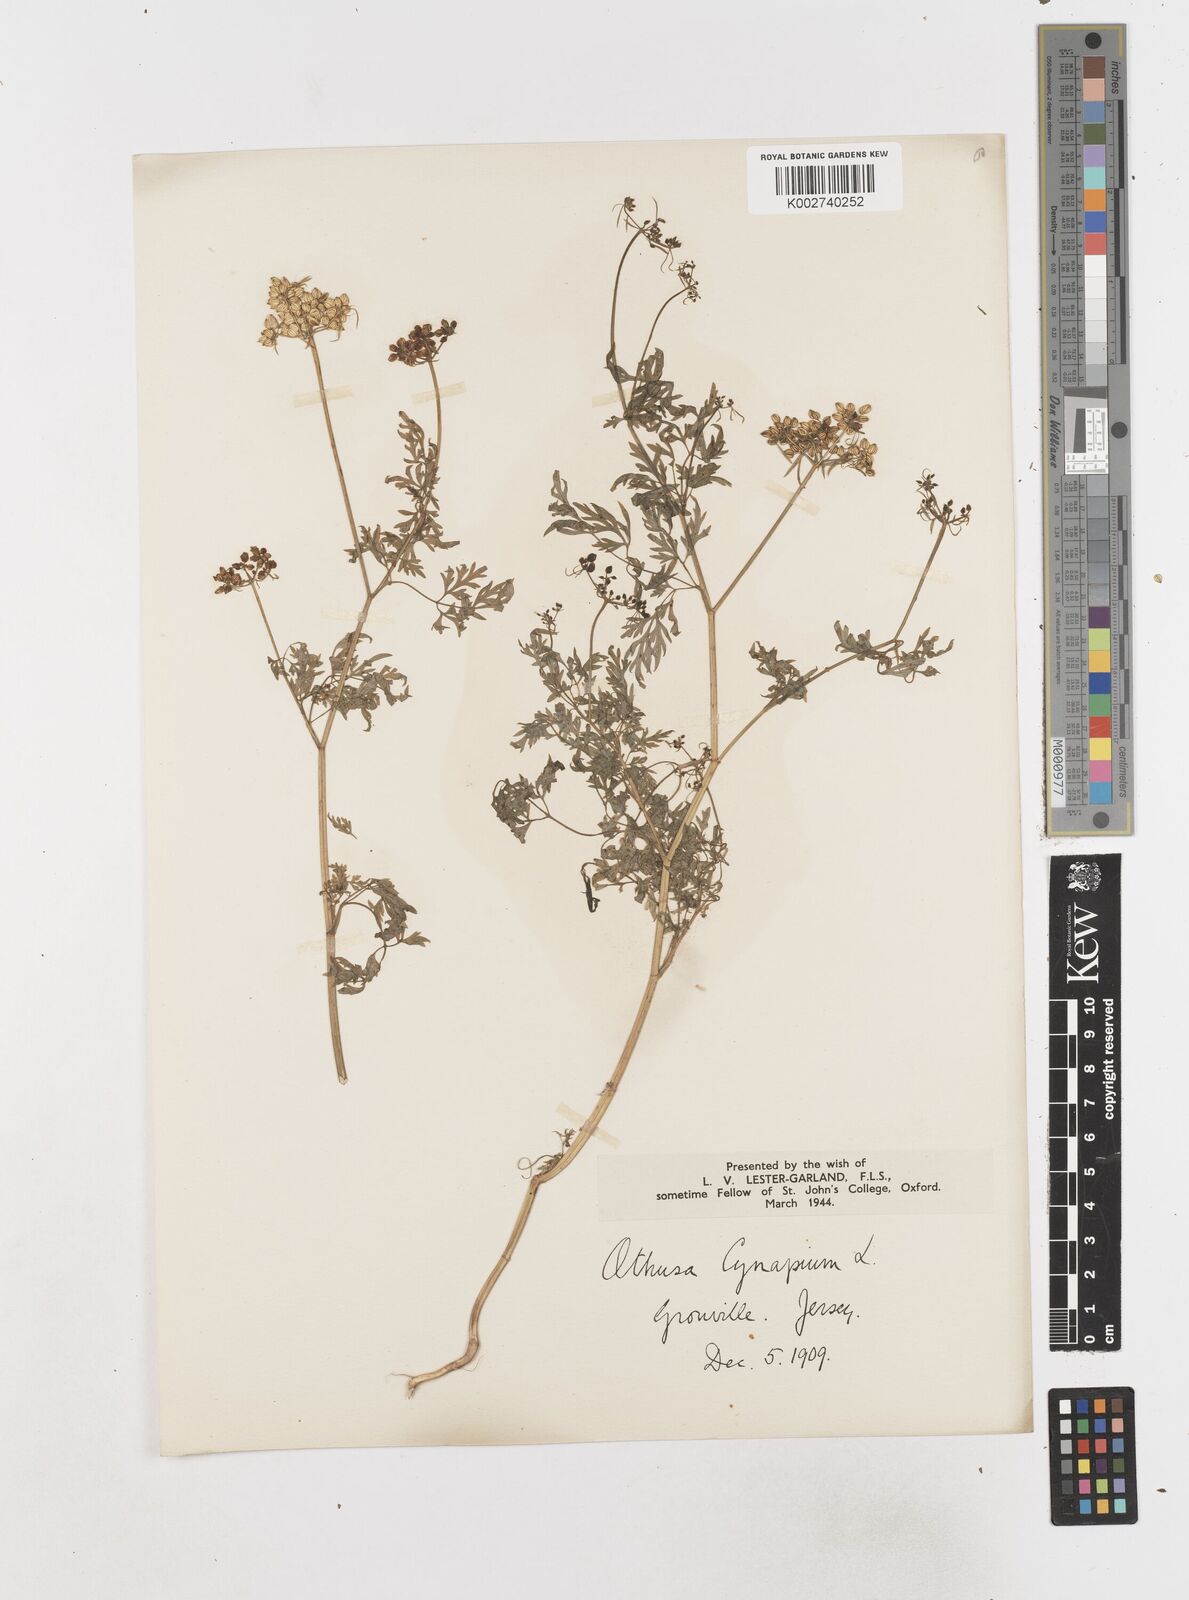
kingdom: Plantae
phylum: Tracheophyta
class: Magnoliopsida
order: Apiales
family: Apiaceae
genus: Aethusa
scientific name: Aethusa cynapium
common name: Fool's parsley
